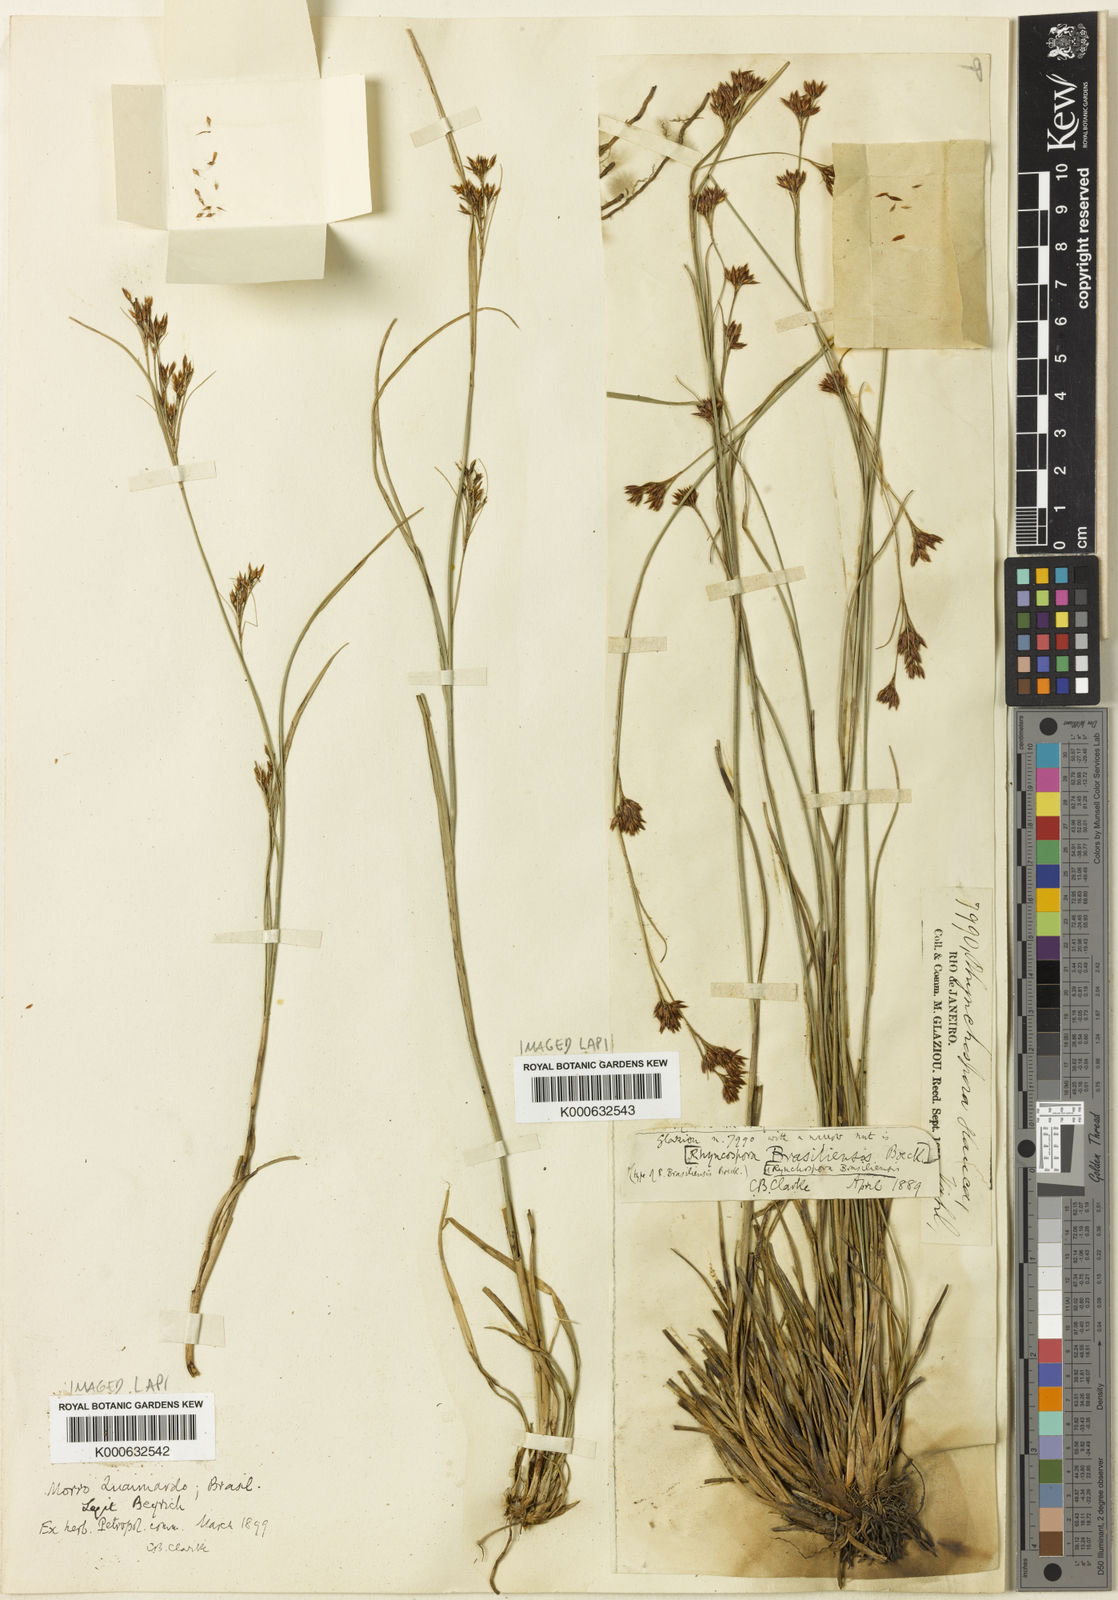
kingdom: Plantae
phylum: Tracheophyta
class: Liliopsida
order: Poales
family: Cyperaceae
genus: Rhynchospora
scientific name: Rhynchospora brasiliensis
